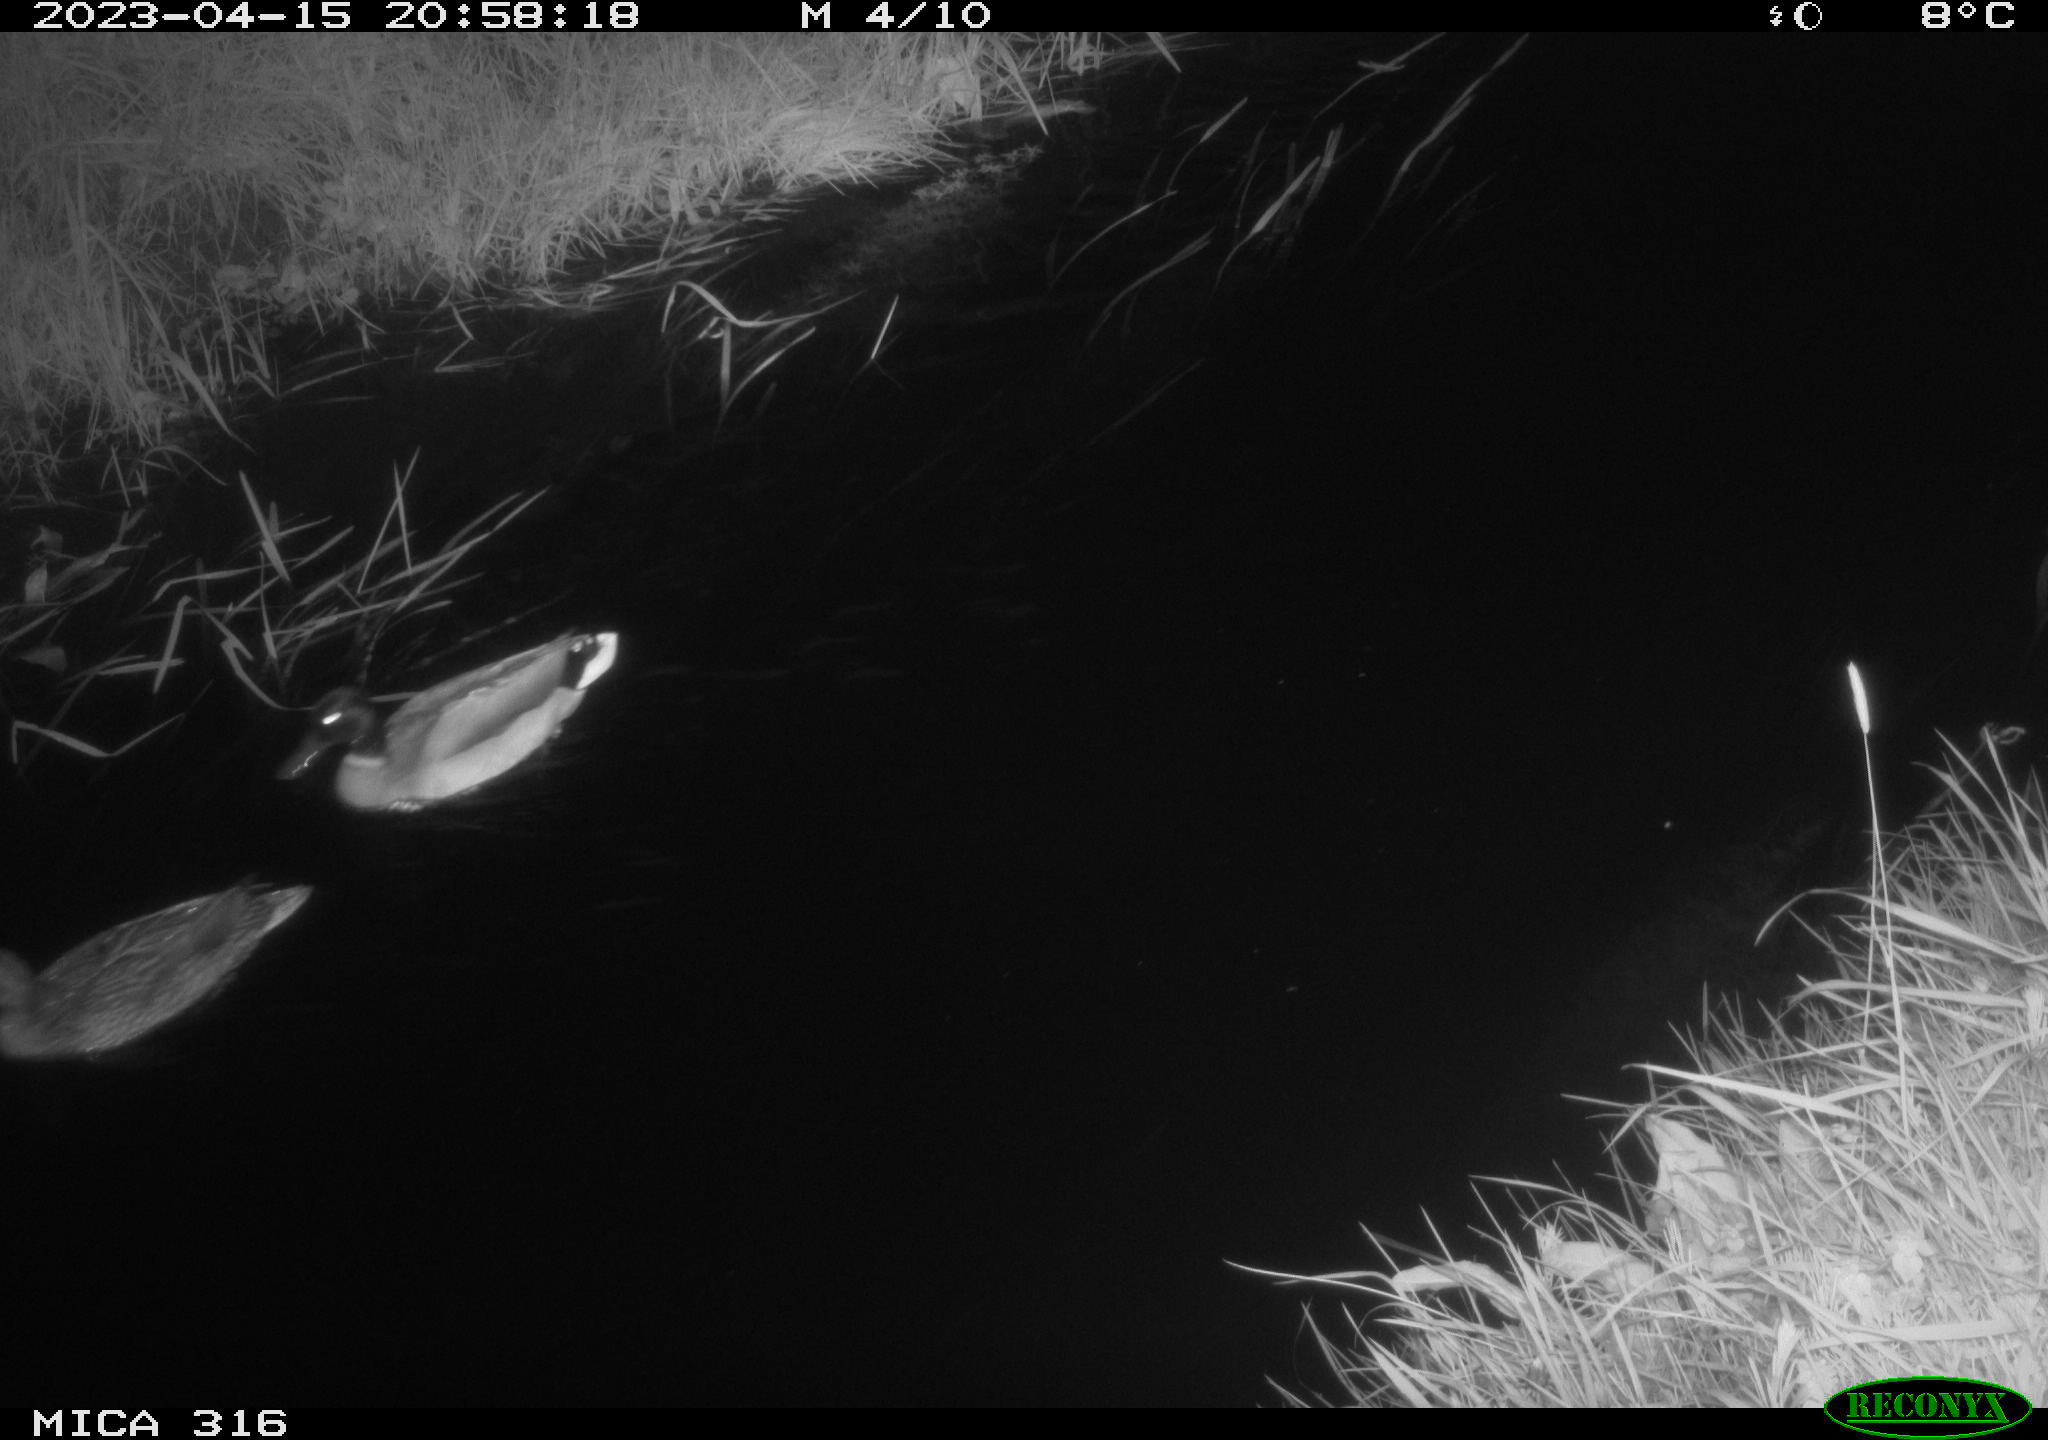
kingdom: Animalia
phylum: Chordata
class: Aves
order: Anseriformes
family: Anatidae
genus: Anas
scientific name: Anas
